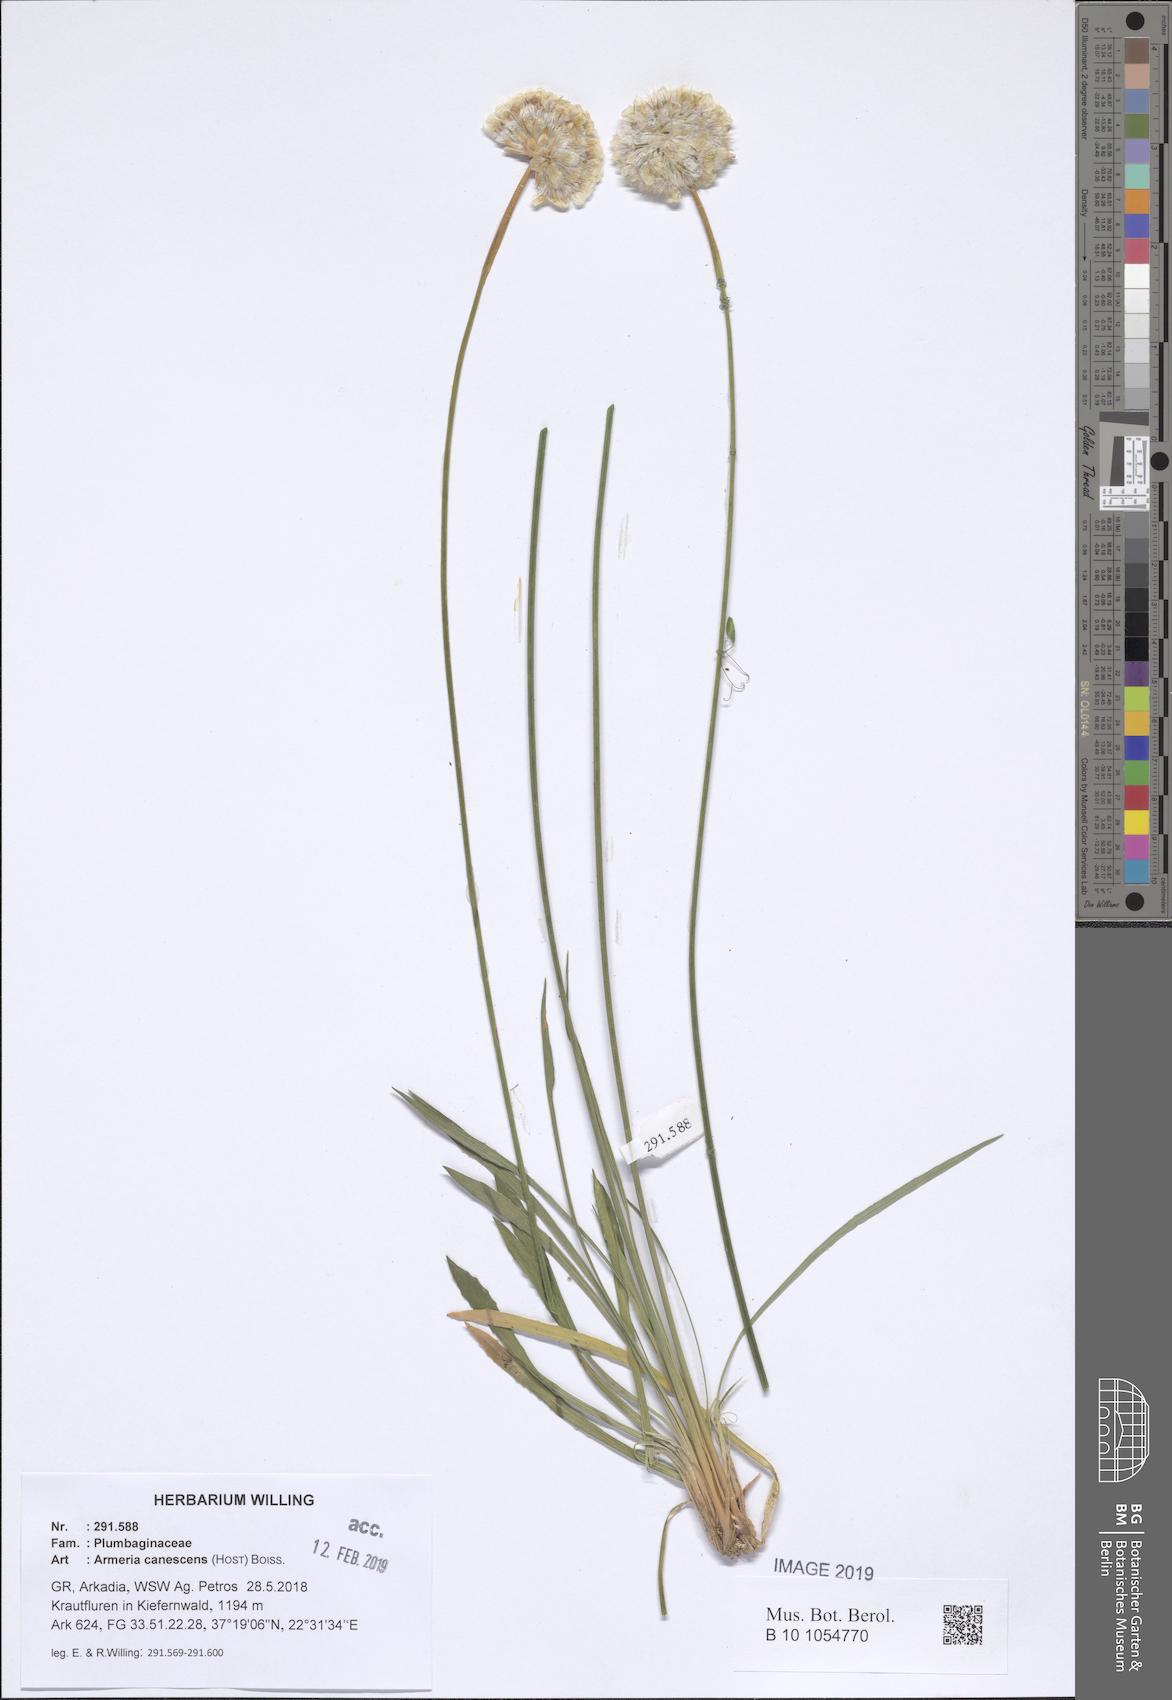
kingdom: Plantae
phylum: Tracheophyta
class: Magnoliopsida
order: Caryophyllales
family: Plumbaginaceae
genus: Armeria
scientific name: Armeria canescens
